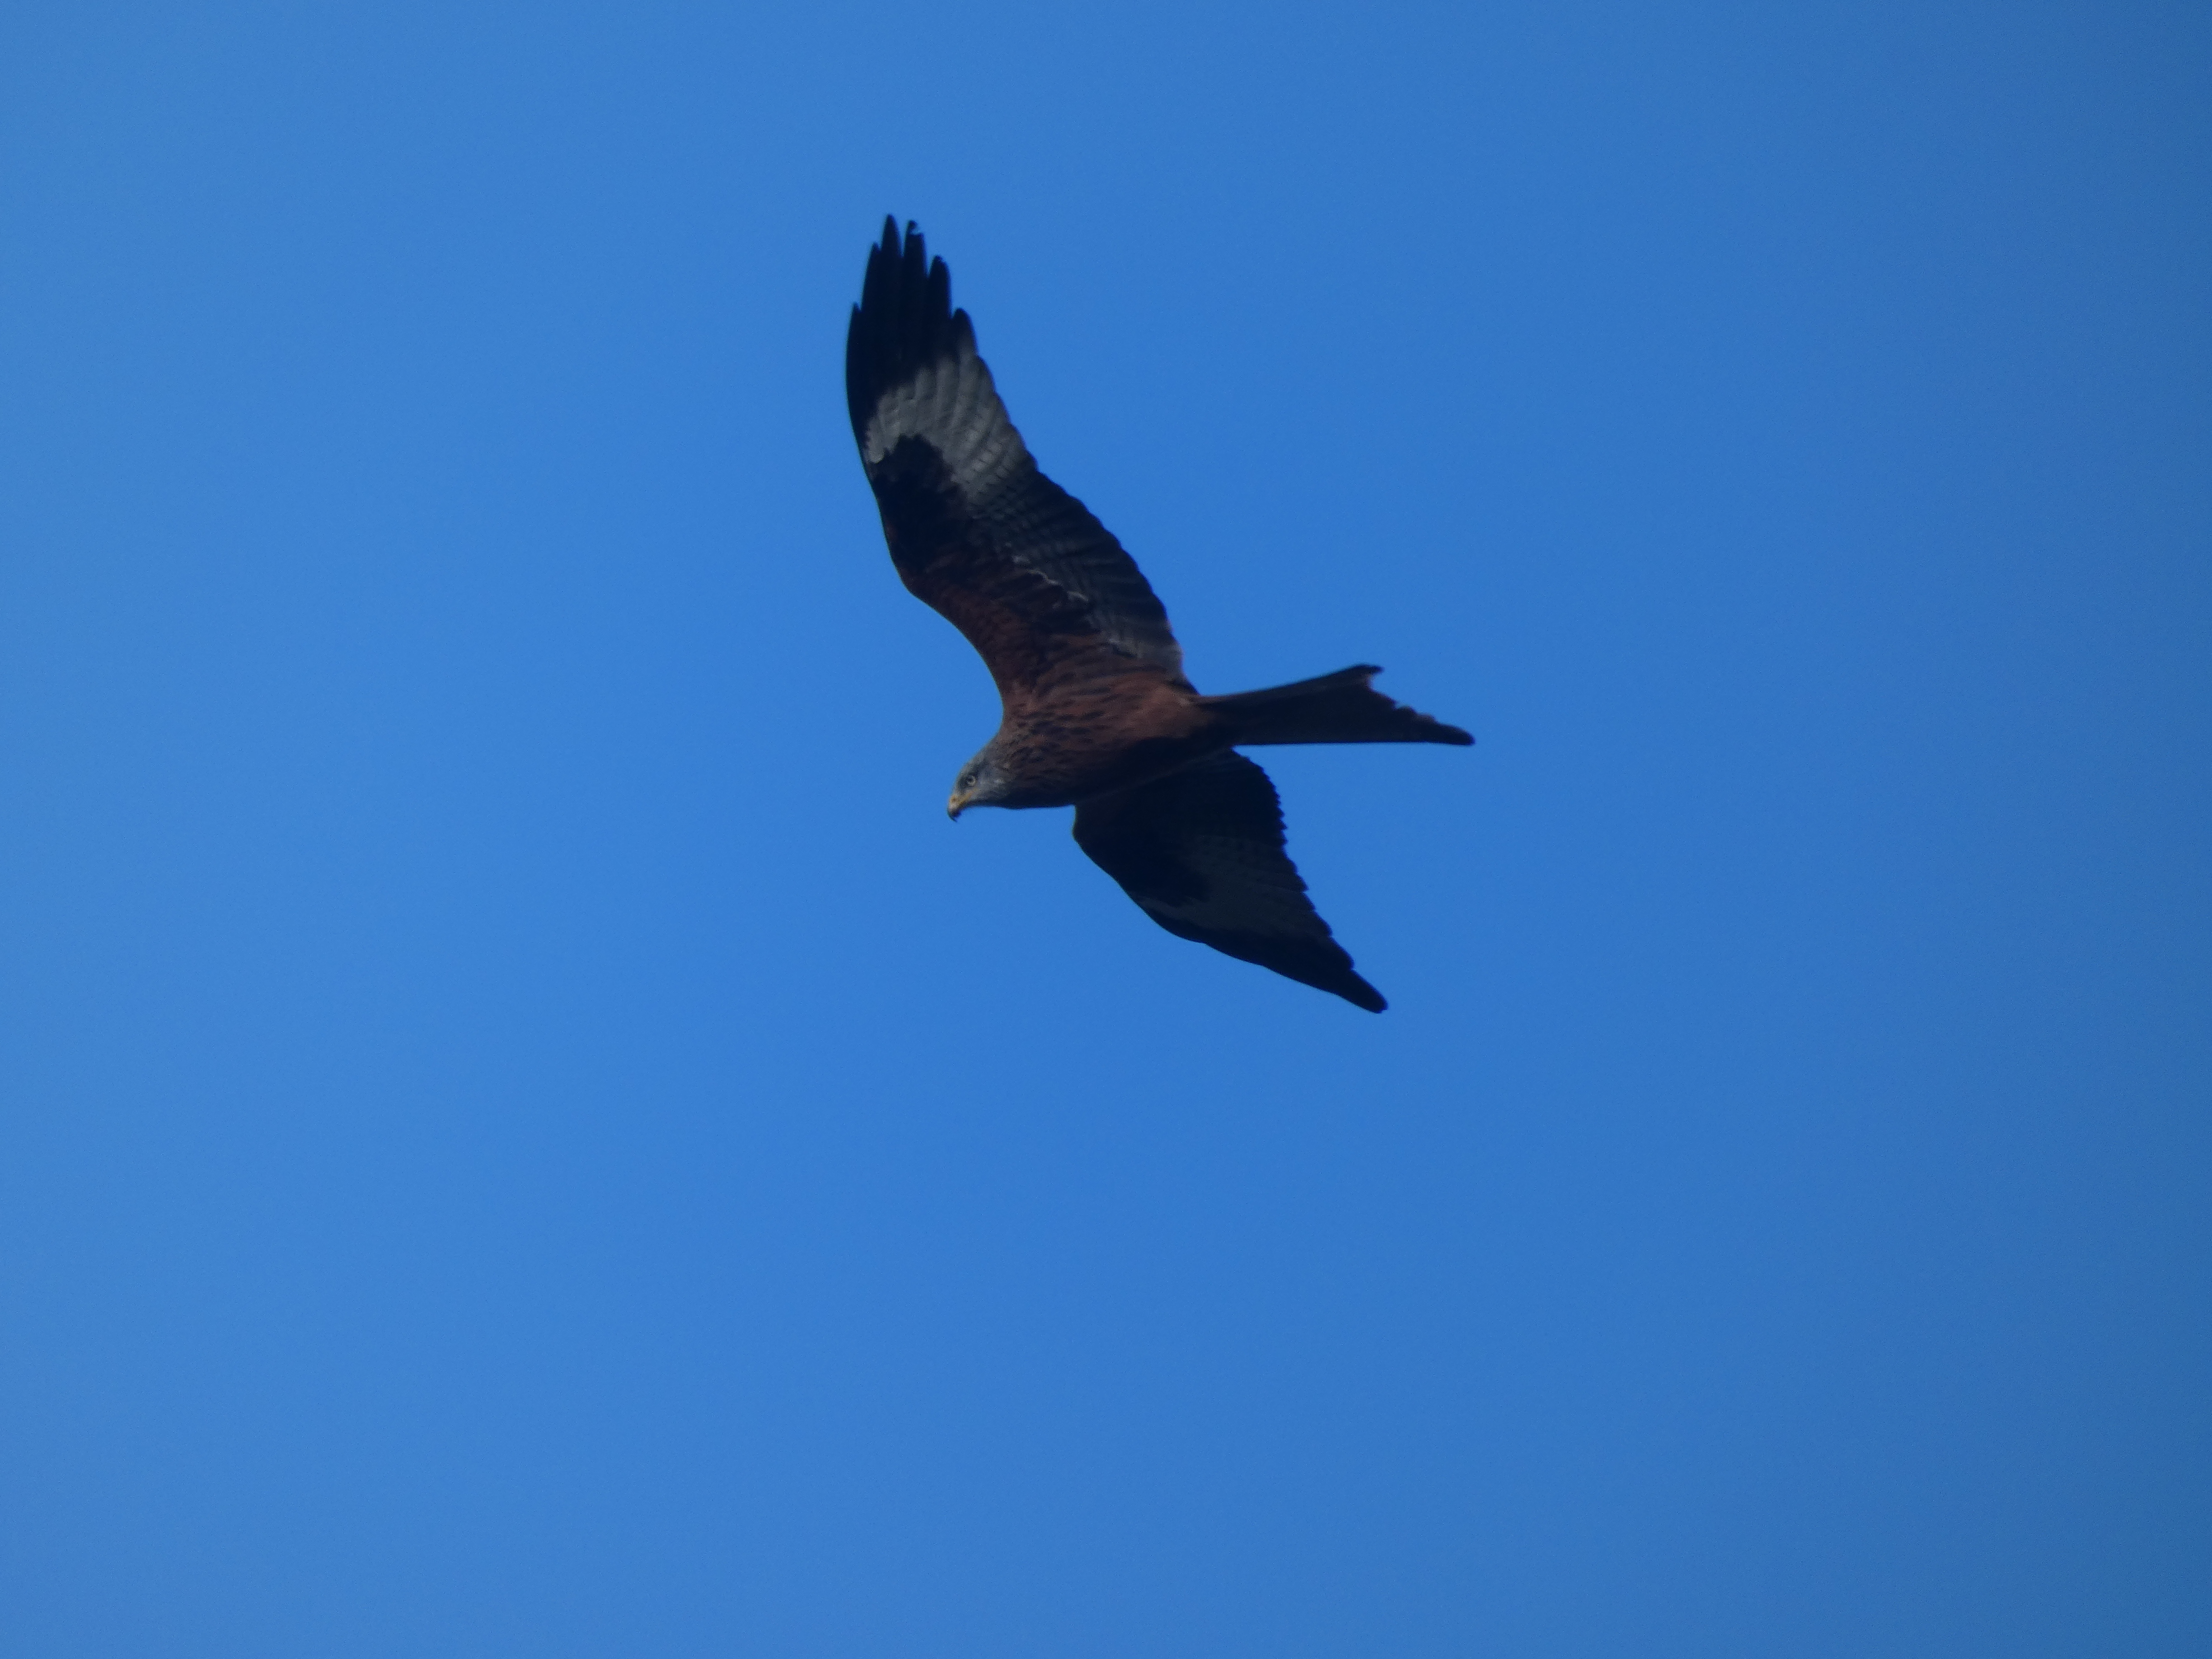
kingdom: Animalia
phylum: Chordata
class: Aves
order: Accipitriformes
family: Accipitridae
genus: Milvus
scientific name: Milvus milvus
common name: Rød glente
